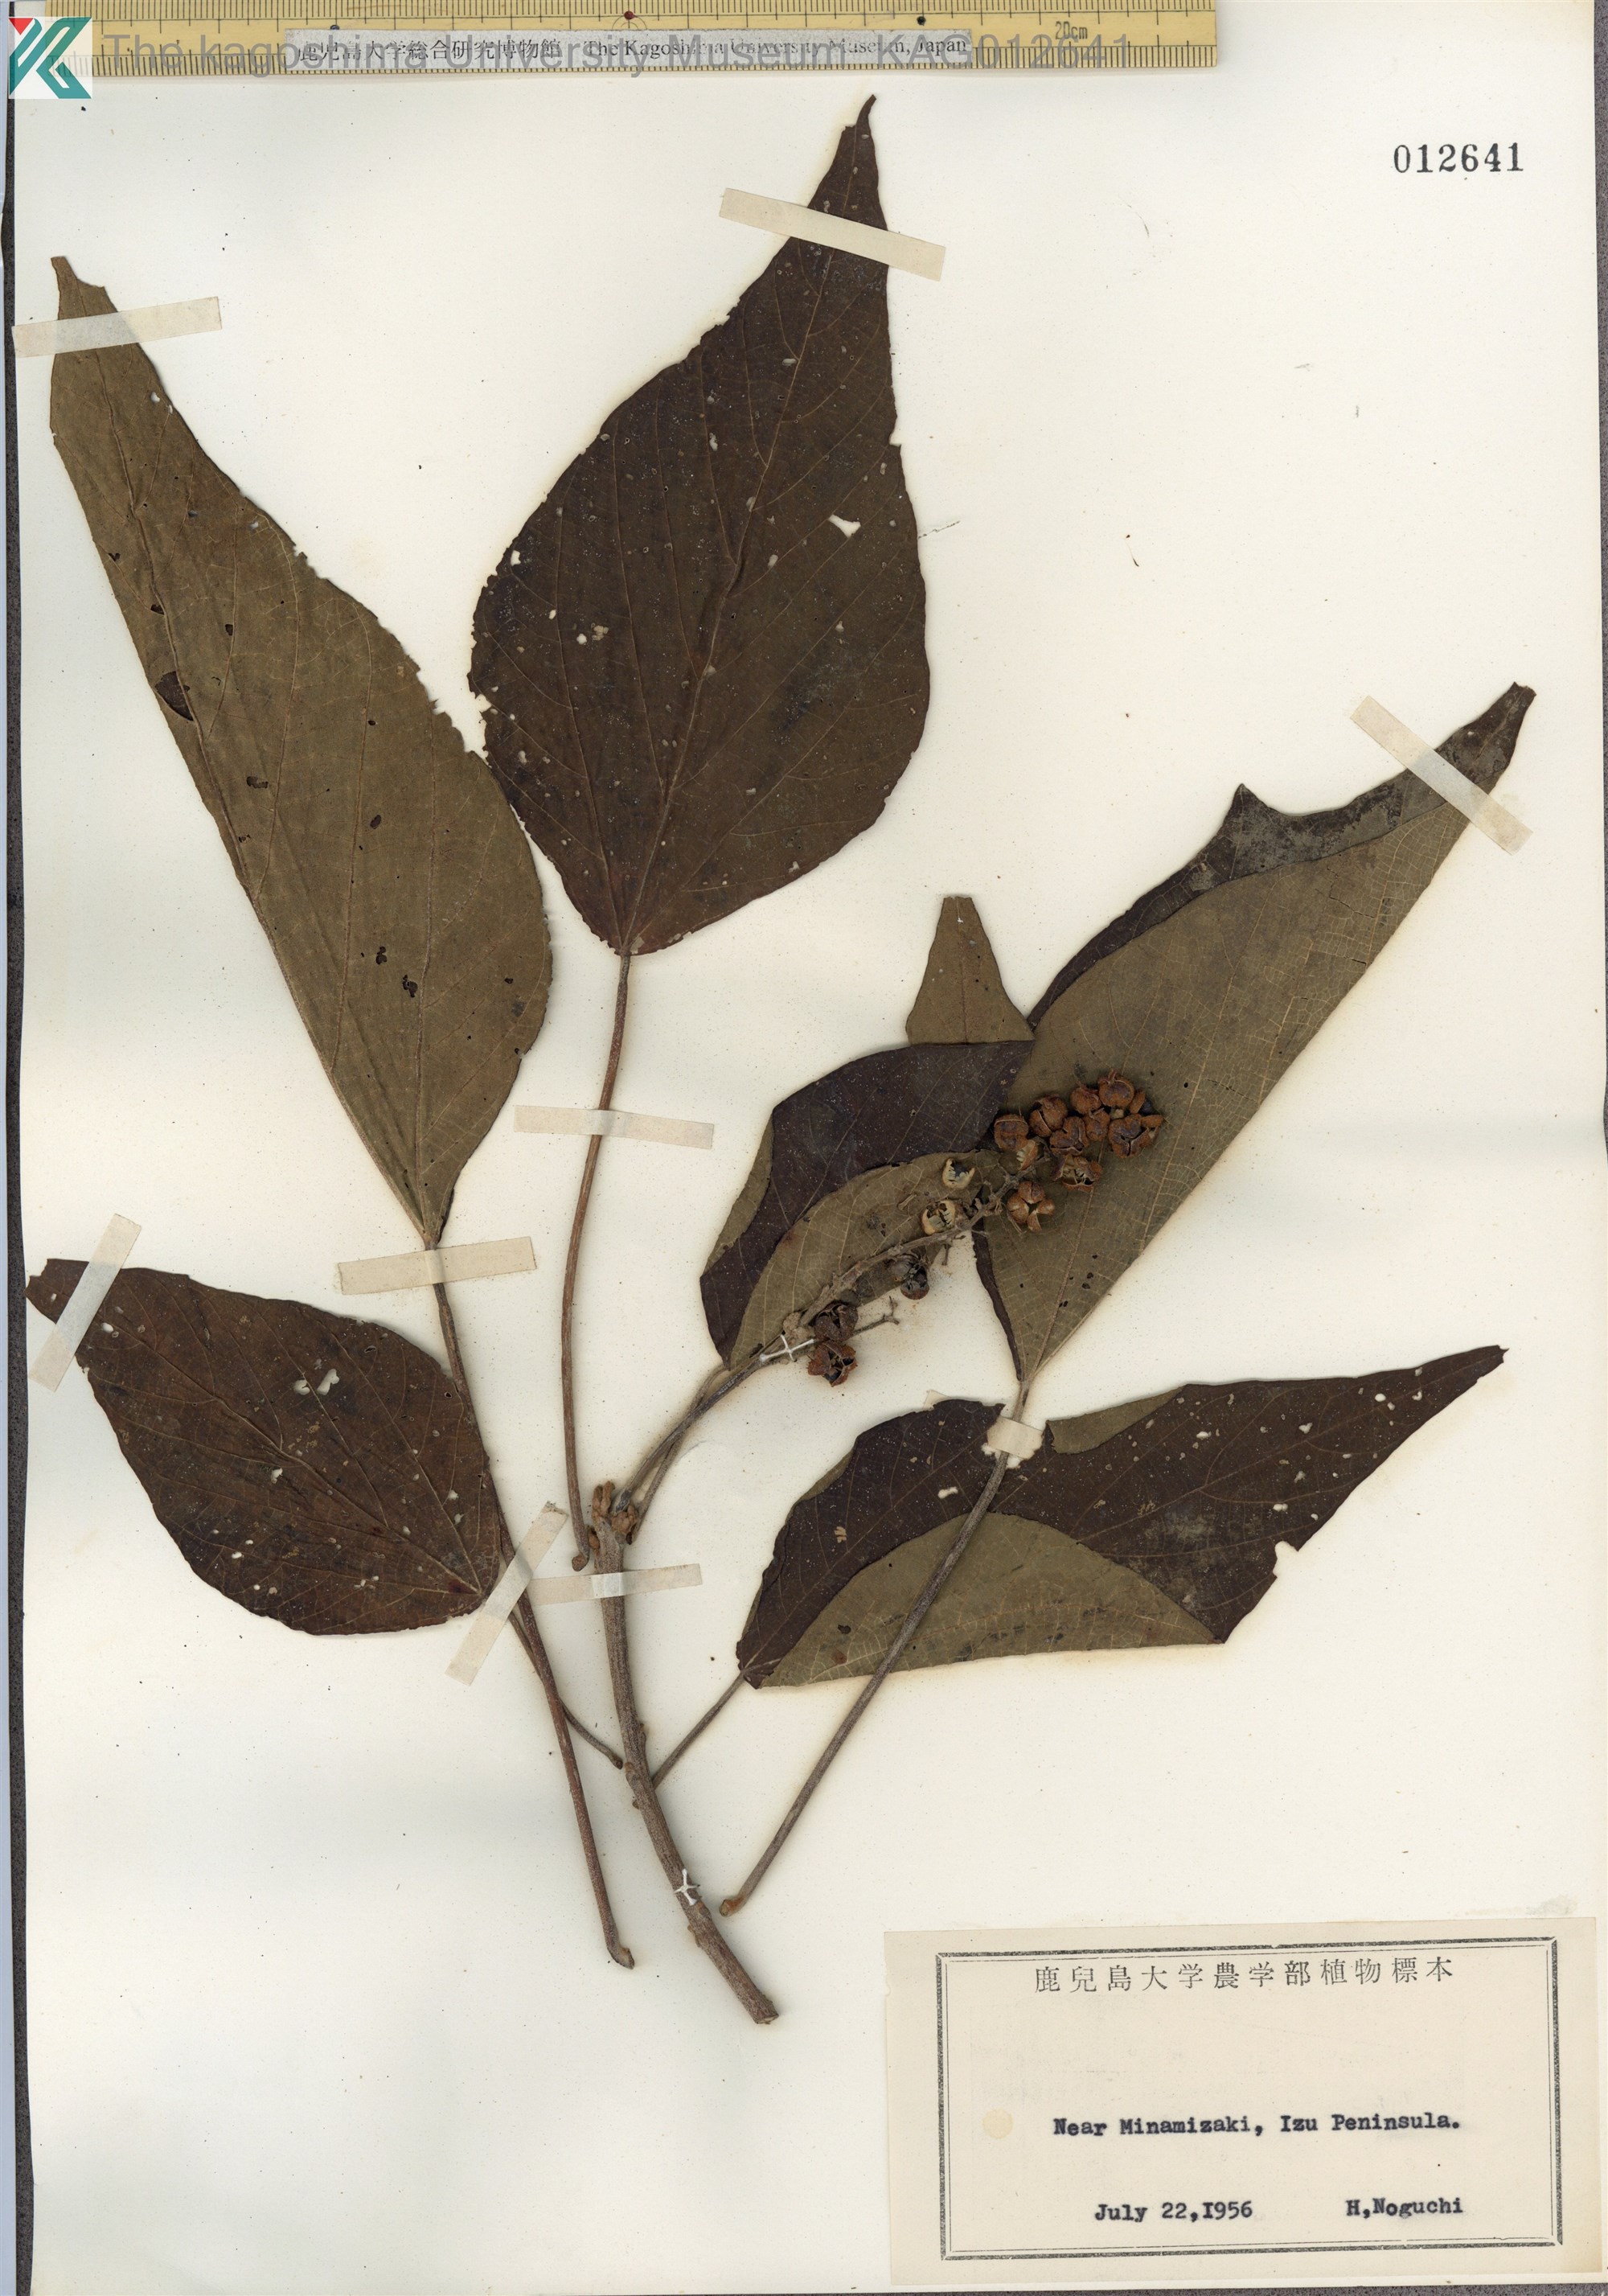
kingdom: Plantae
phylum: Tracheophyta
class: Magnoliopsida
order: Malpighiales
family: Euphorbiaceae
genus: Mallotus
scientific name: Mallotus japonicus
